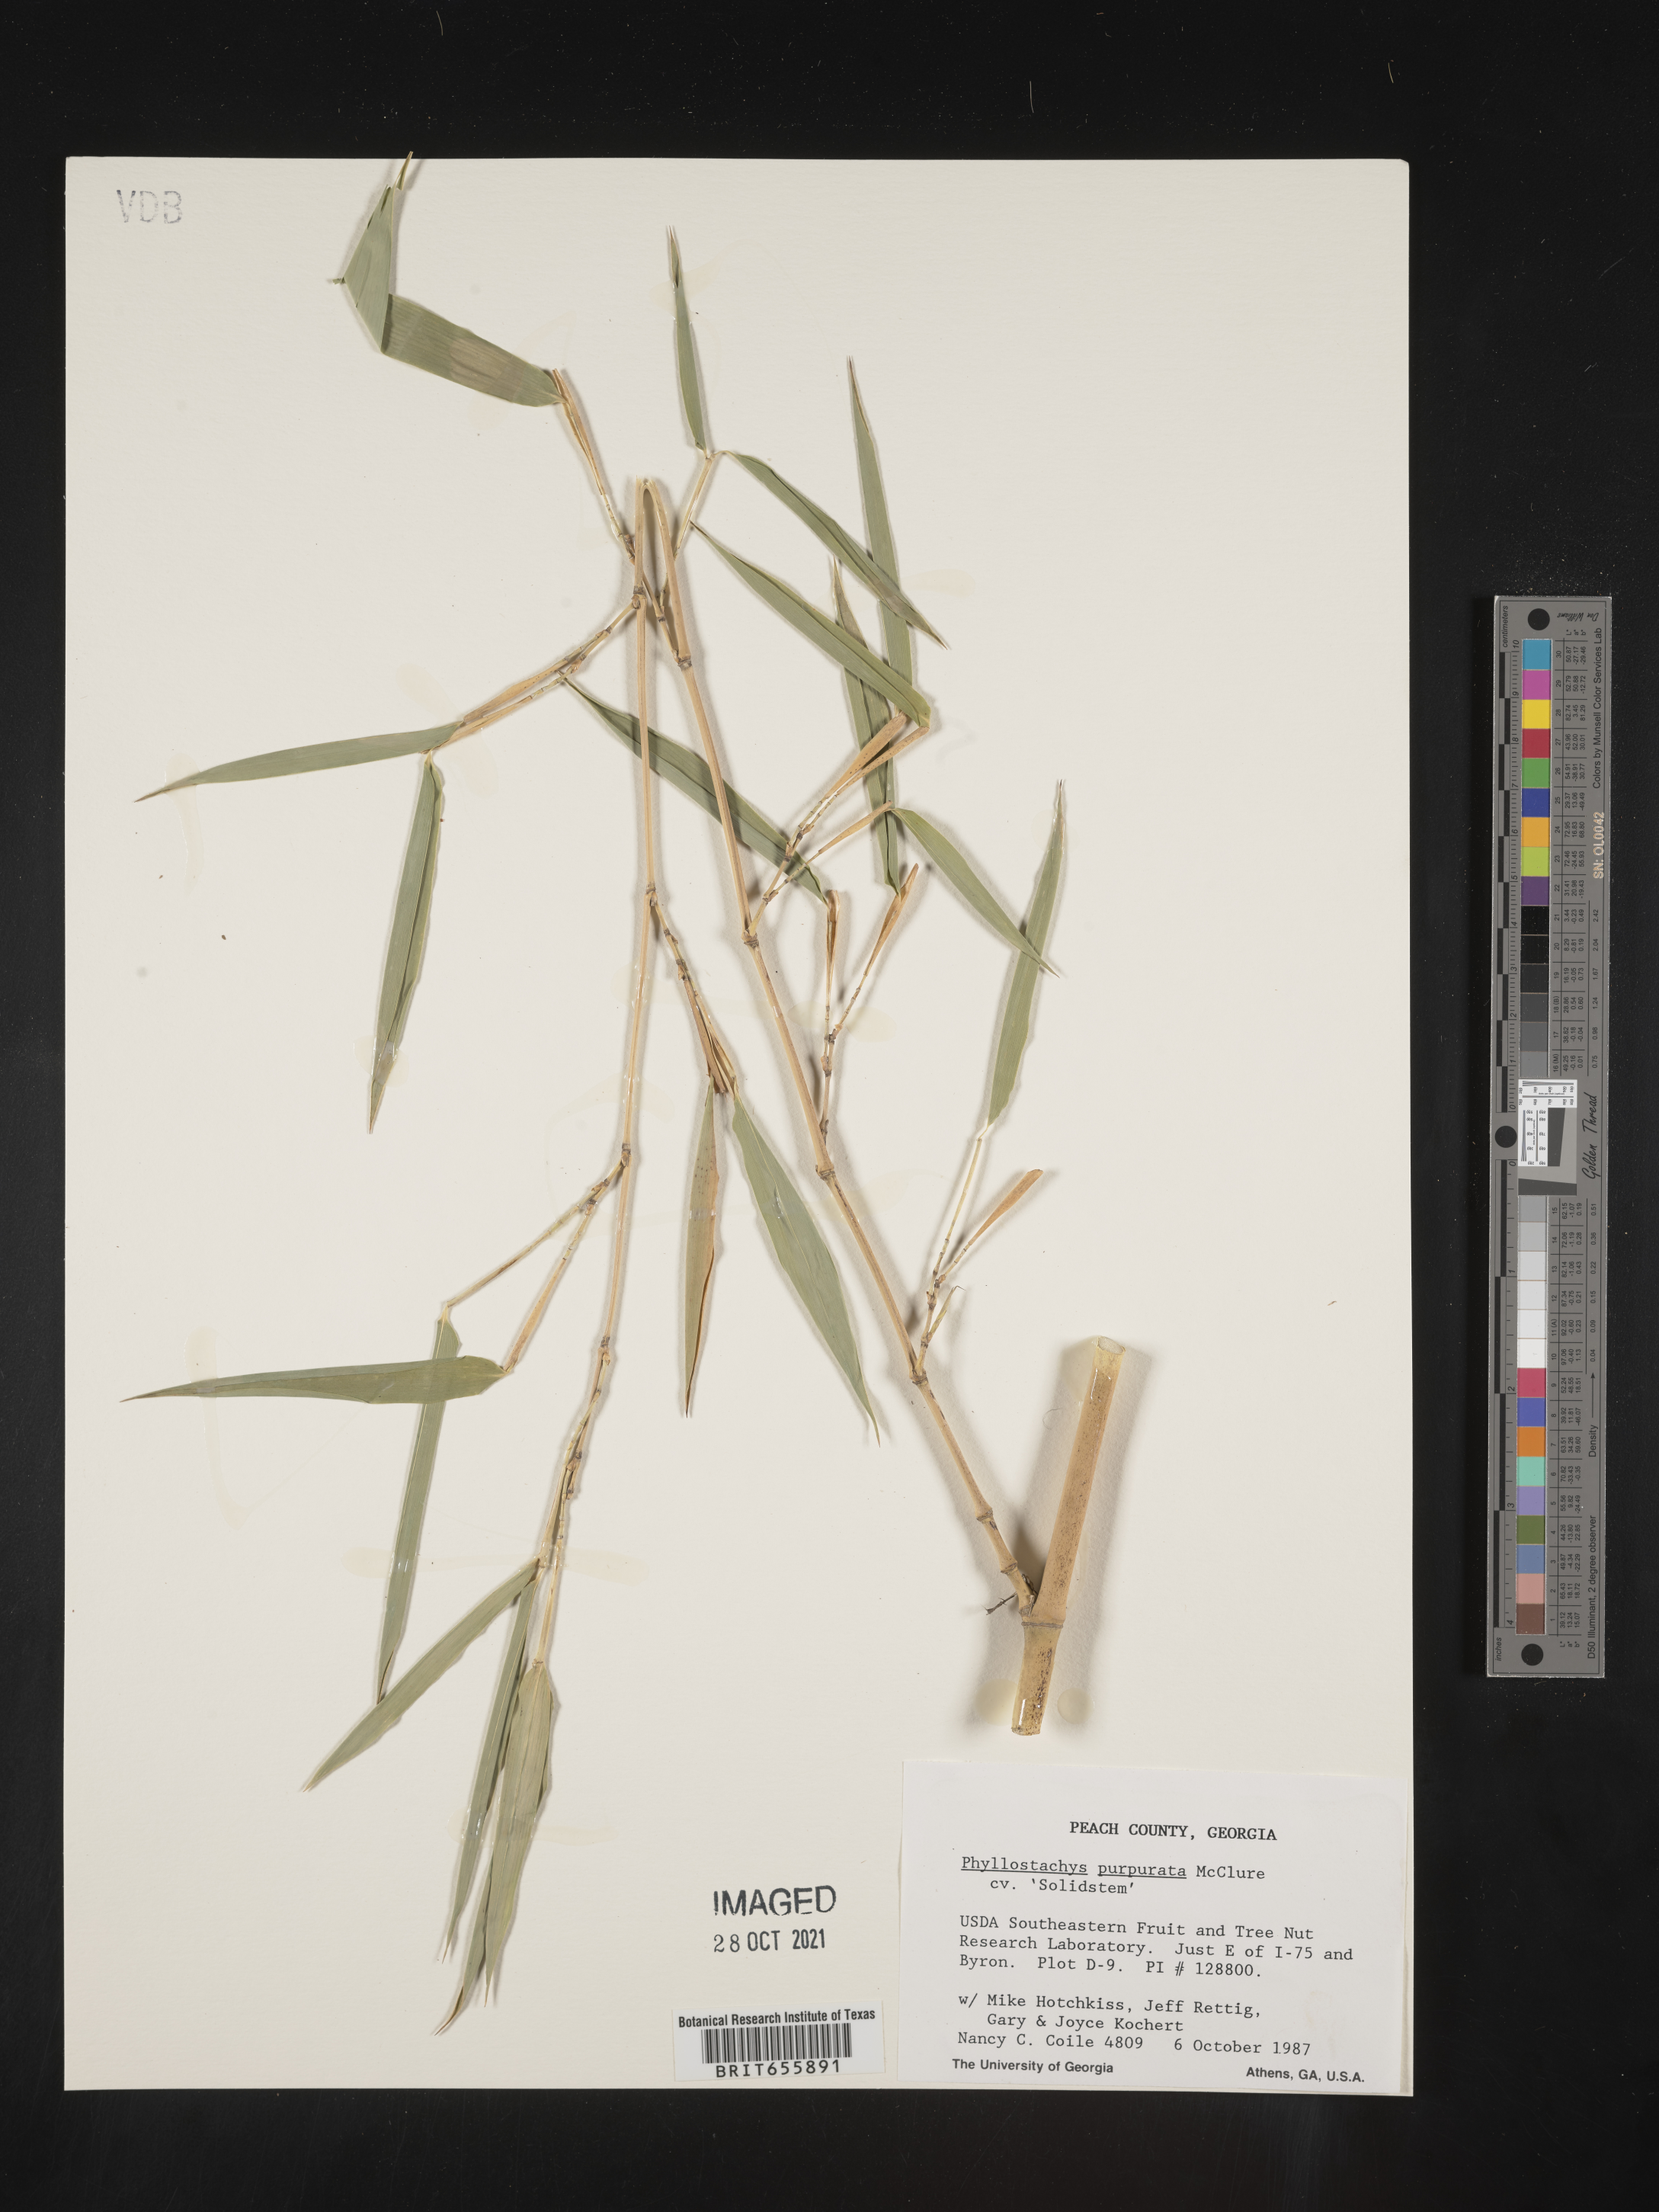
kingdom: Plantae
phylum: Tracheophyta
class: Liliopsida
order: Poales
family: Poaceae
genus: Phyllostachys
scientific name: Phyllostachys
